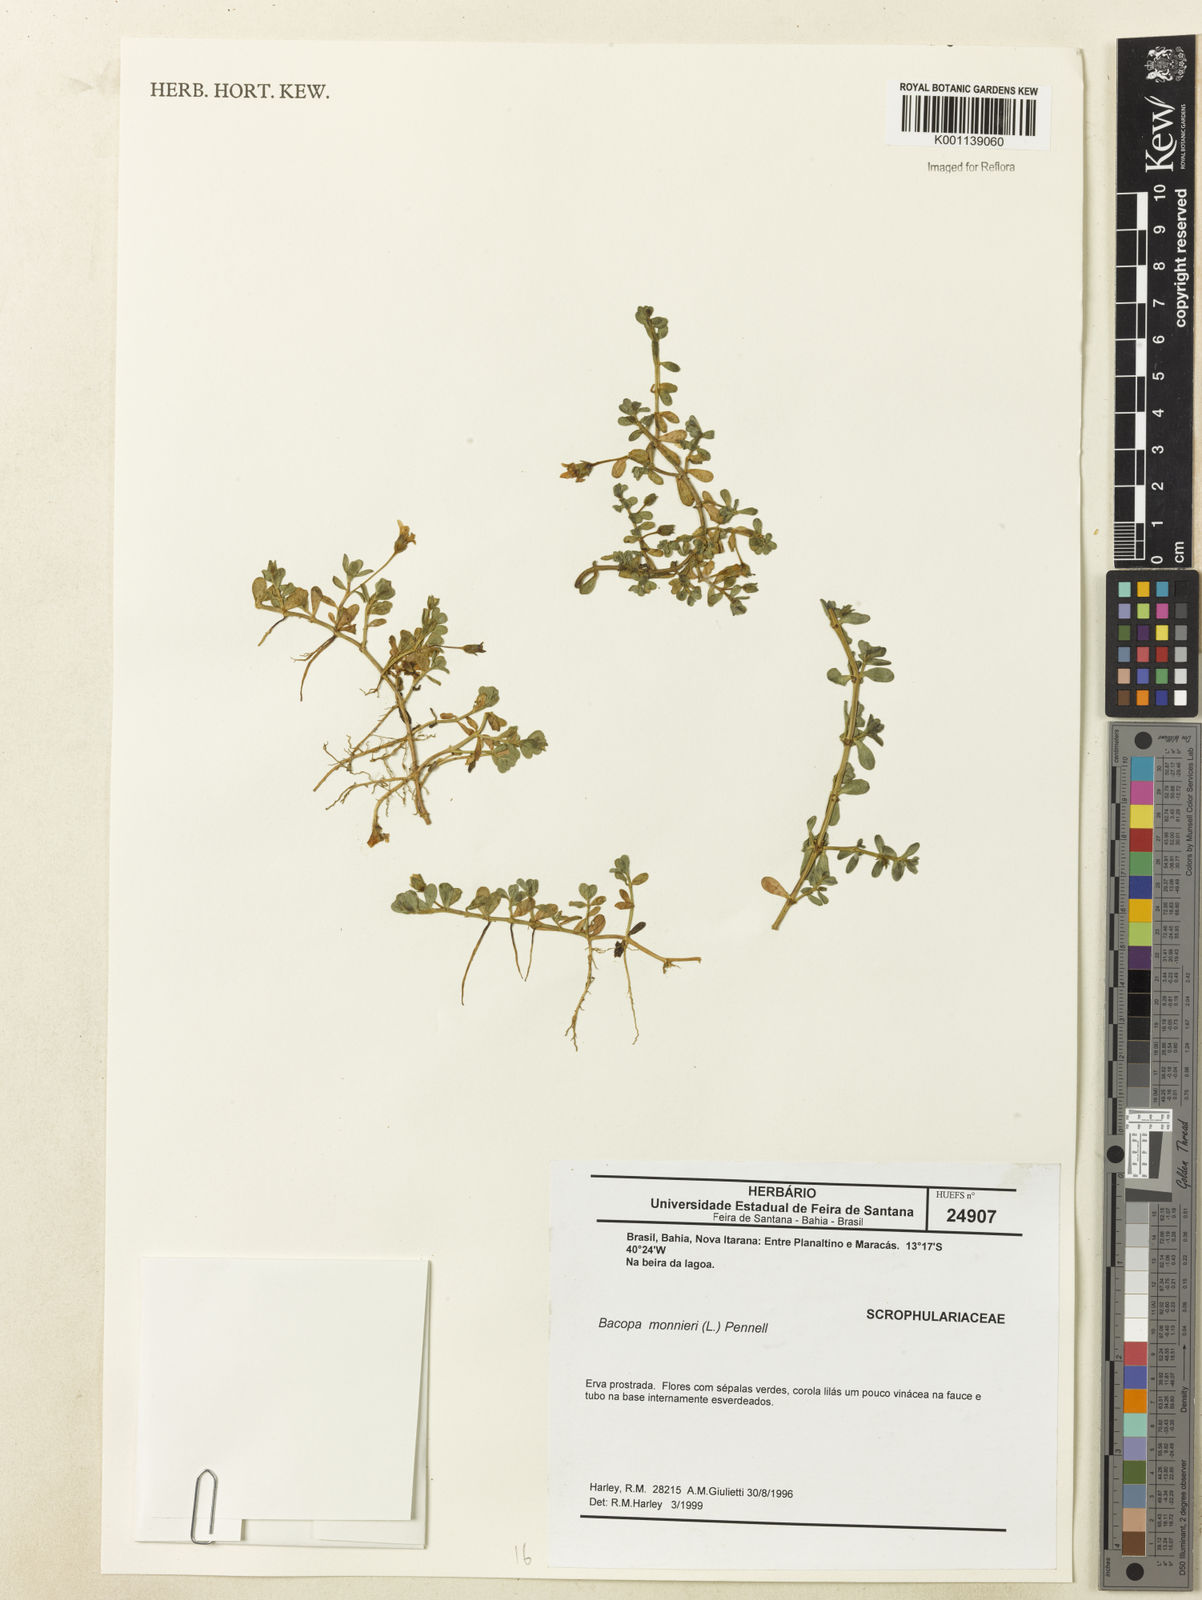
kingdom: Plantae
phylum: Tracheophyta
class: Magnoliopsida
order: Lamiales
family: Plantaginaceae
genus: Bacopa
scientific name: Bacopa
